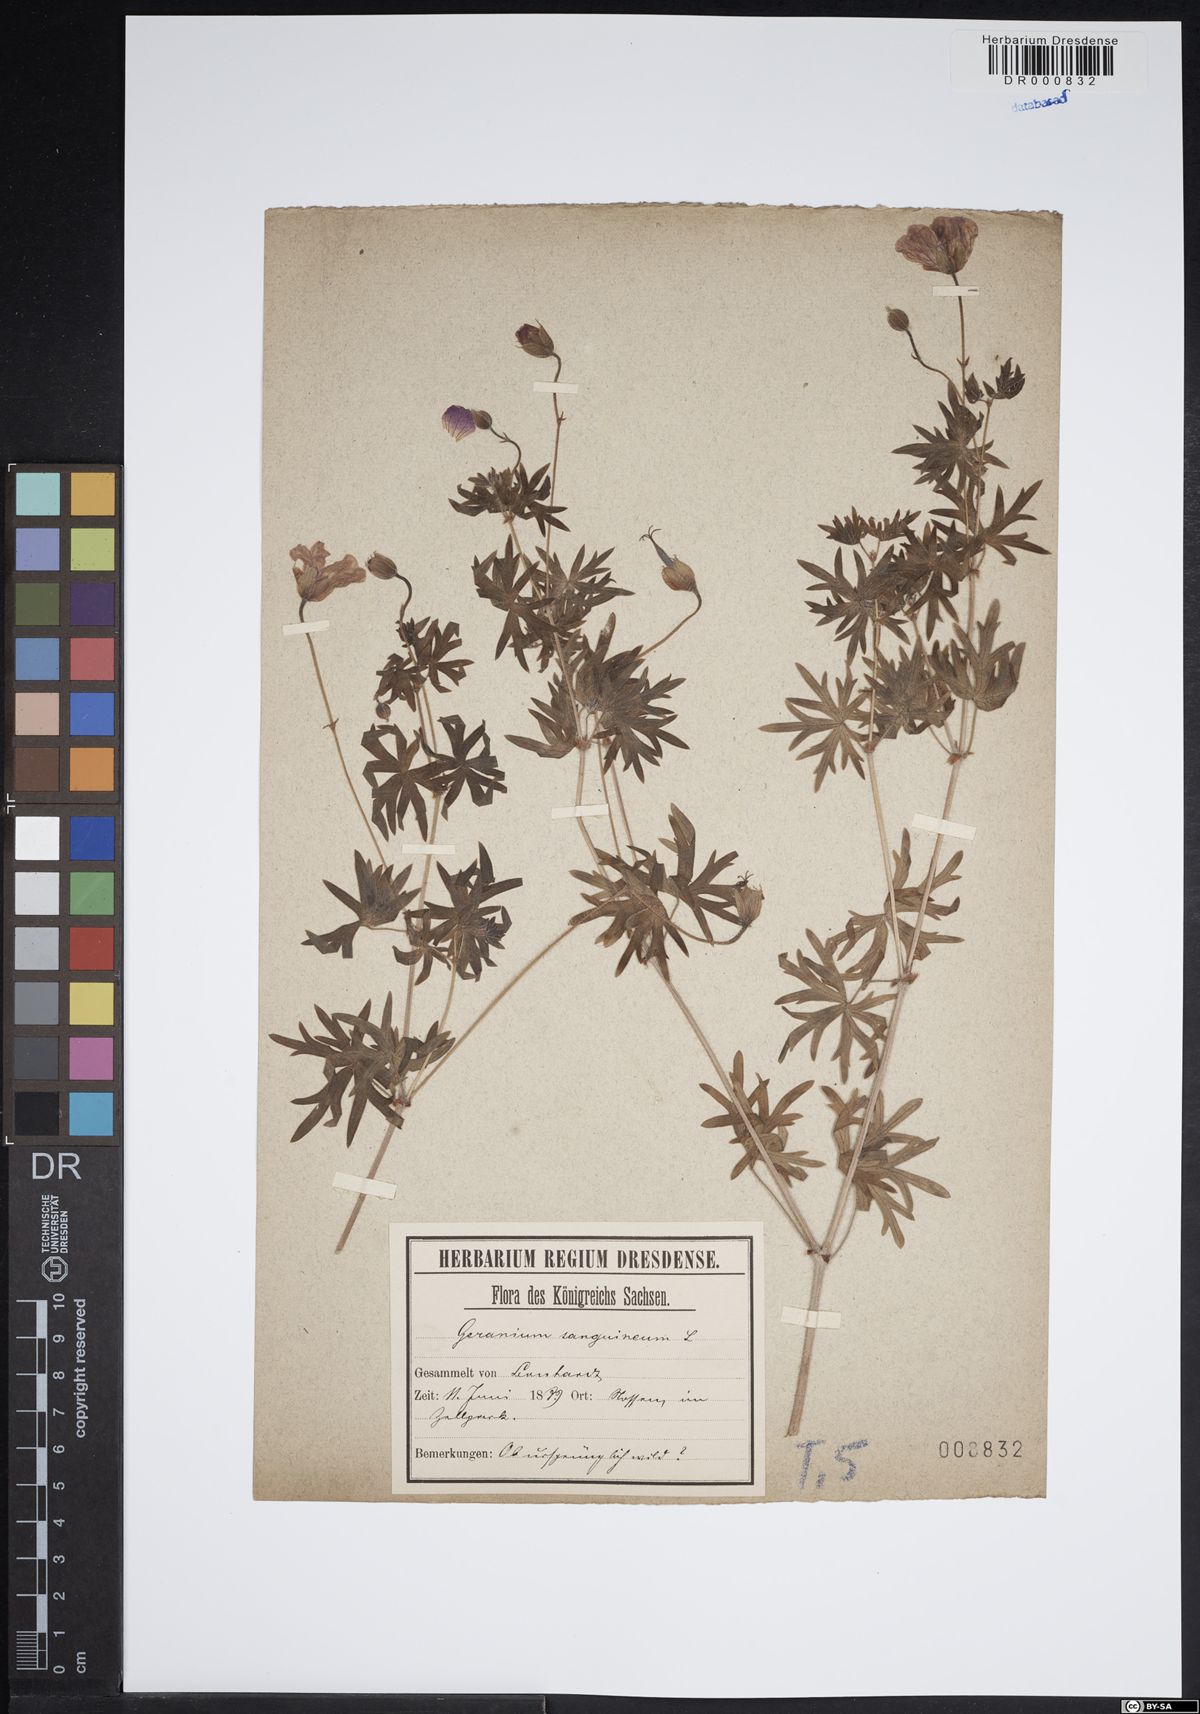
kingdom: Plantae
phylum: Tracheophyta
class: Magnoliopsida
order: Geraniales
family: Geraniaceae
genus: Geranium
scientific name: Geranium sanguineum
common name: Bloody crane's-bill
